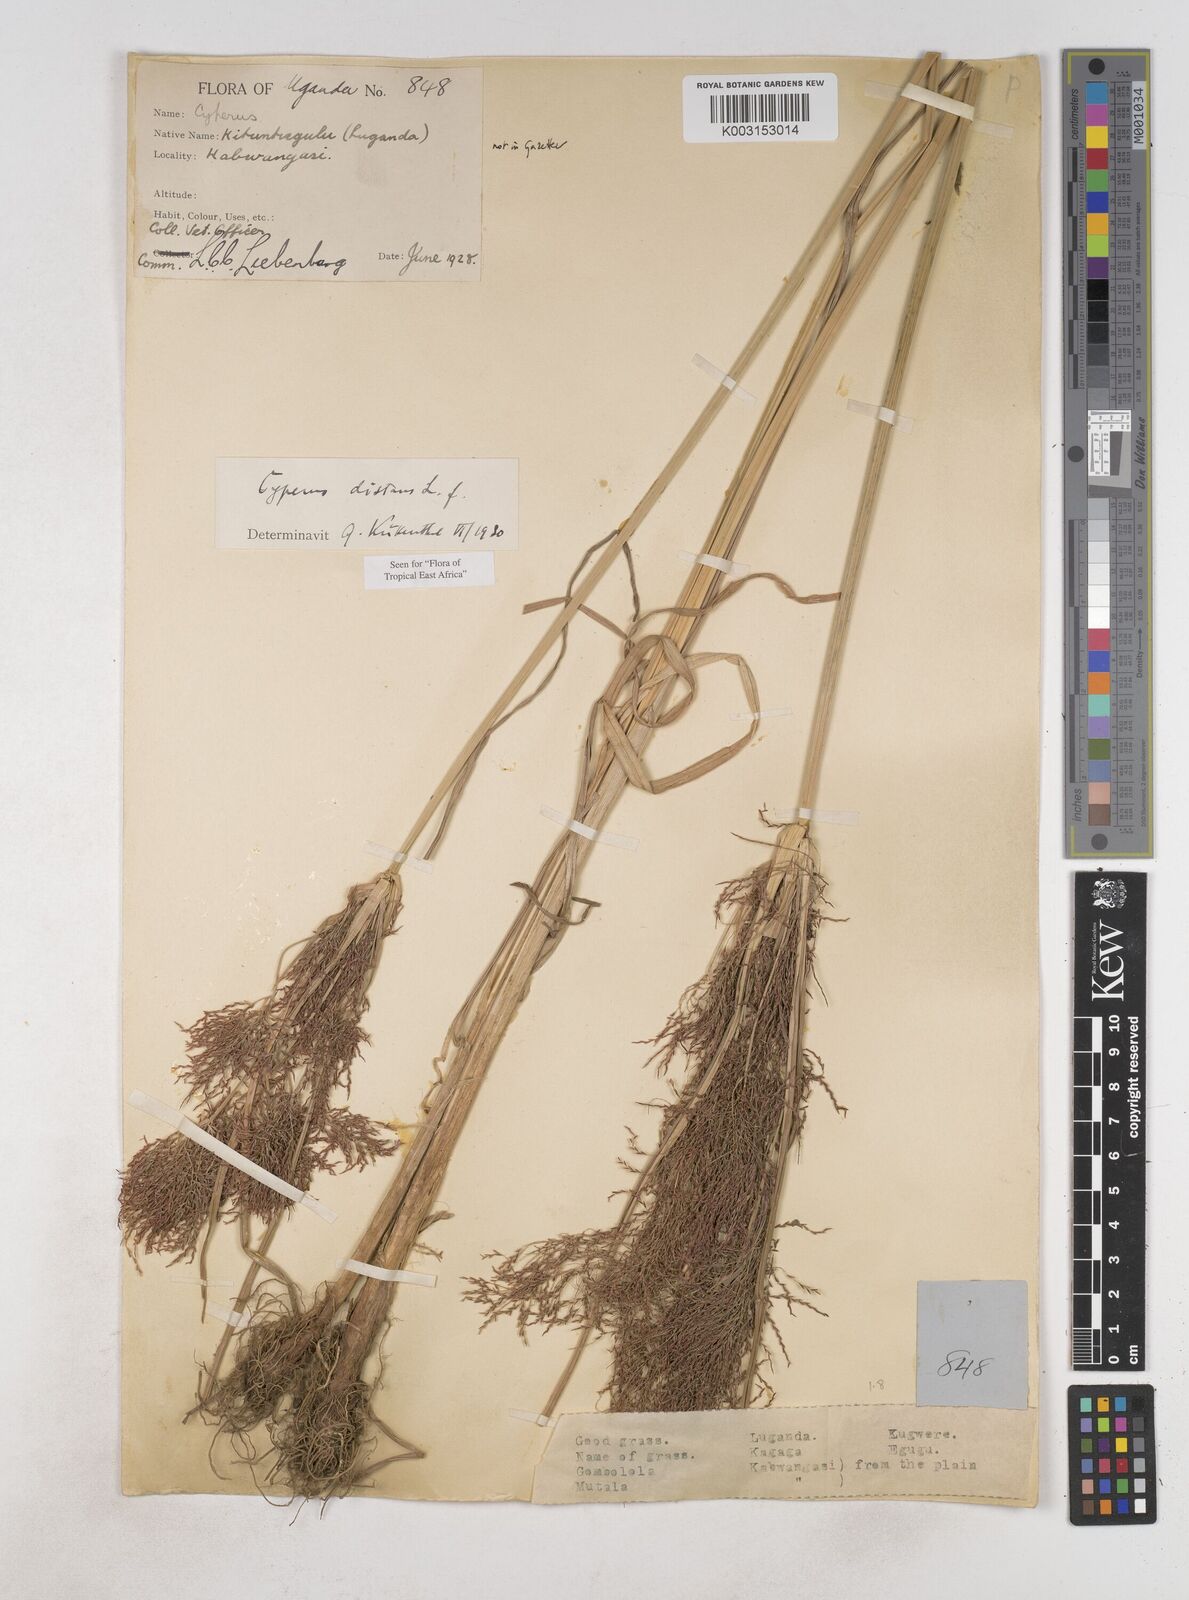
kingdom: Plantae
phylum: Tracheophyta
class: Liliopsida
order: Poales
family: Cyperaceae
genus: Cyperus
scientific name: Cyperus distans
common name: Slender cyperus
